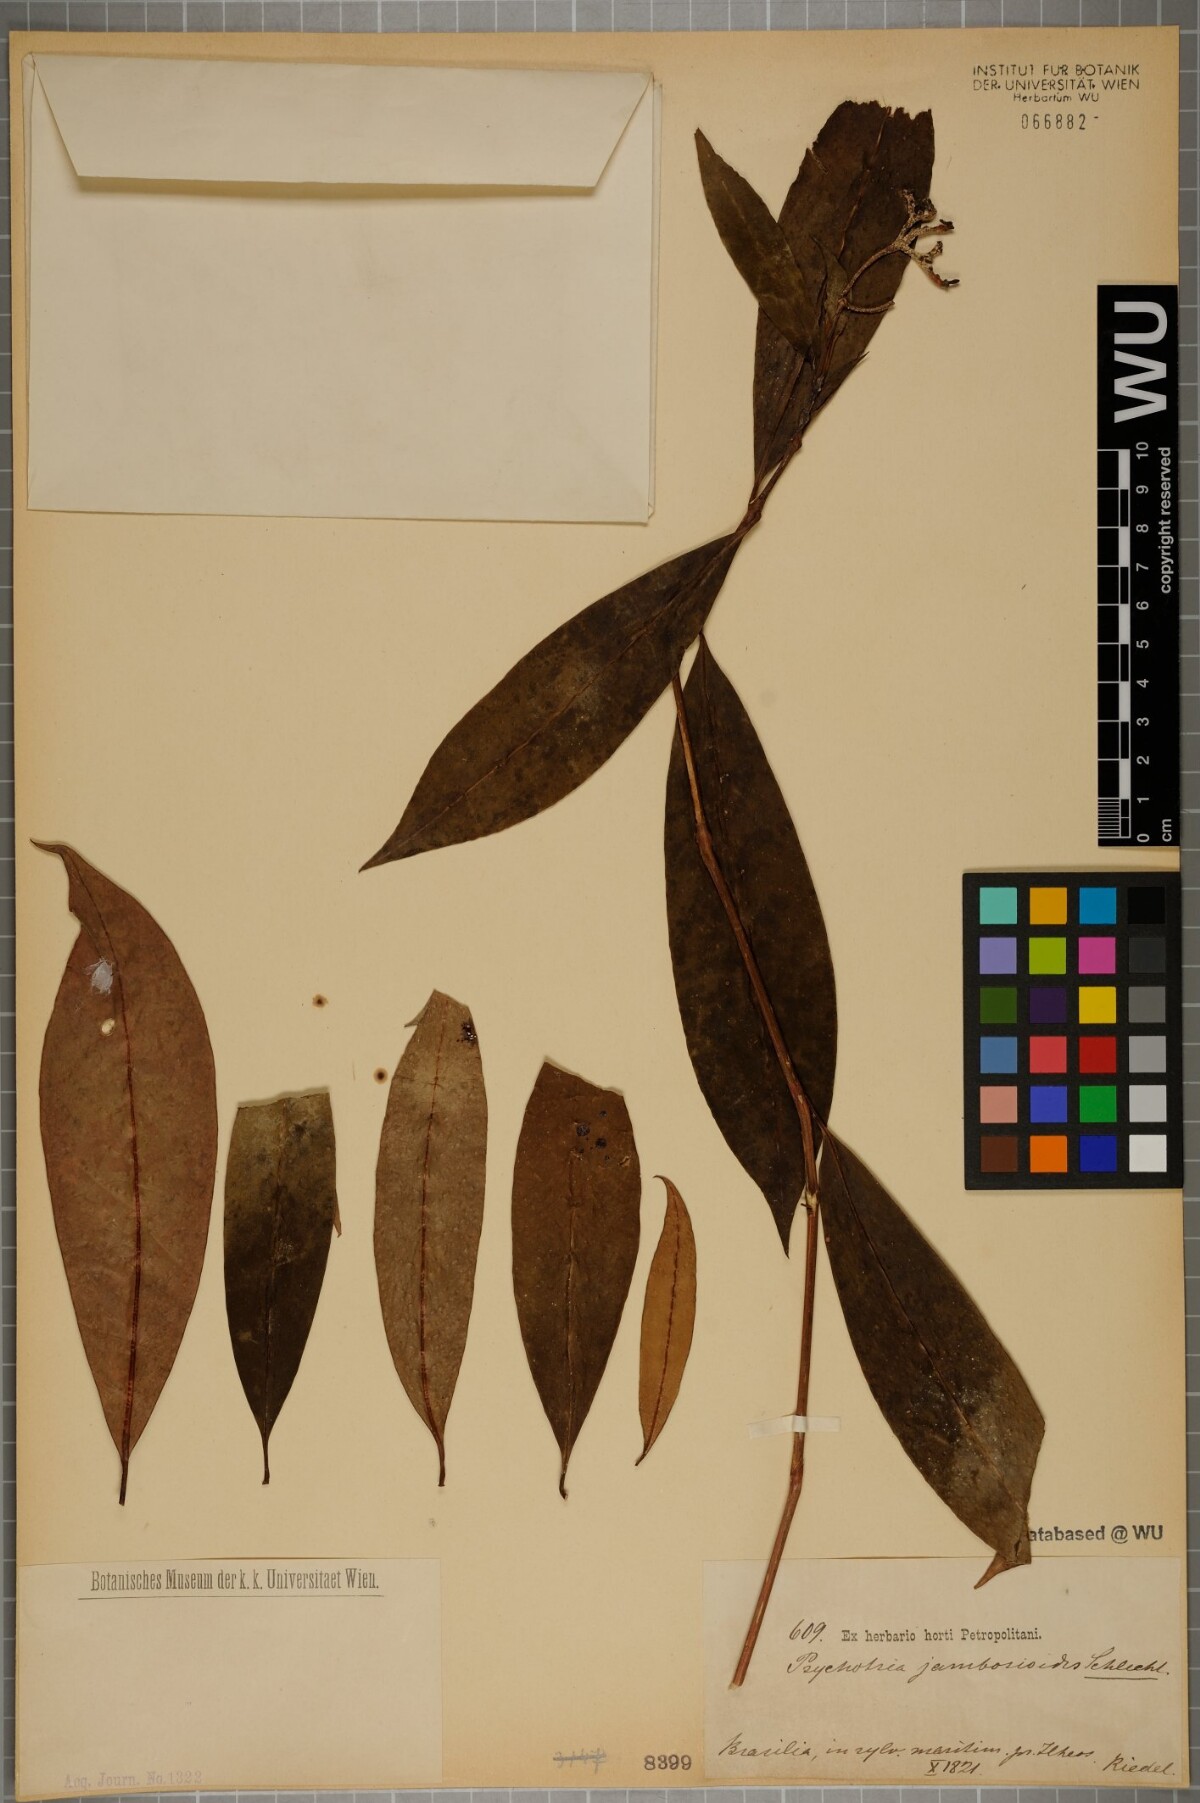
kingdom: Plantae
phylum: Tracheophyta
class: Magnoliopsida
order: Gentianales
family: Rubiaceae
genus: Palicourea
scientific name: Palicourea jambosioides
